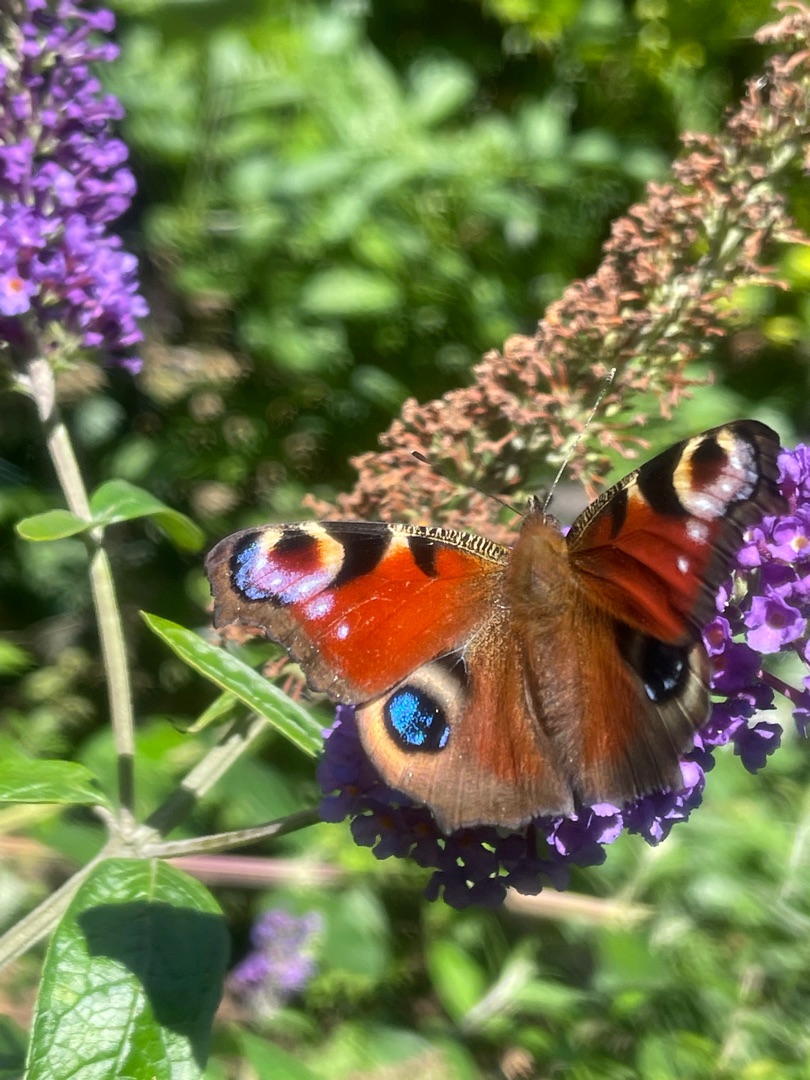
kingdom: Animalia
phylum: Arthropoda
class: Insecta
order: Lepidoptera
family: Nymphalidae
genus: Aglais
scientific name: Aglais io
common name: Dagpåfugleøje
